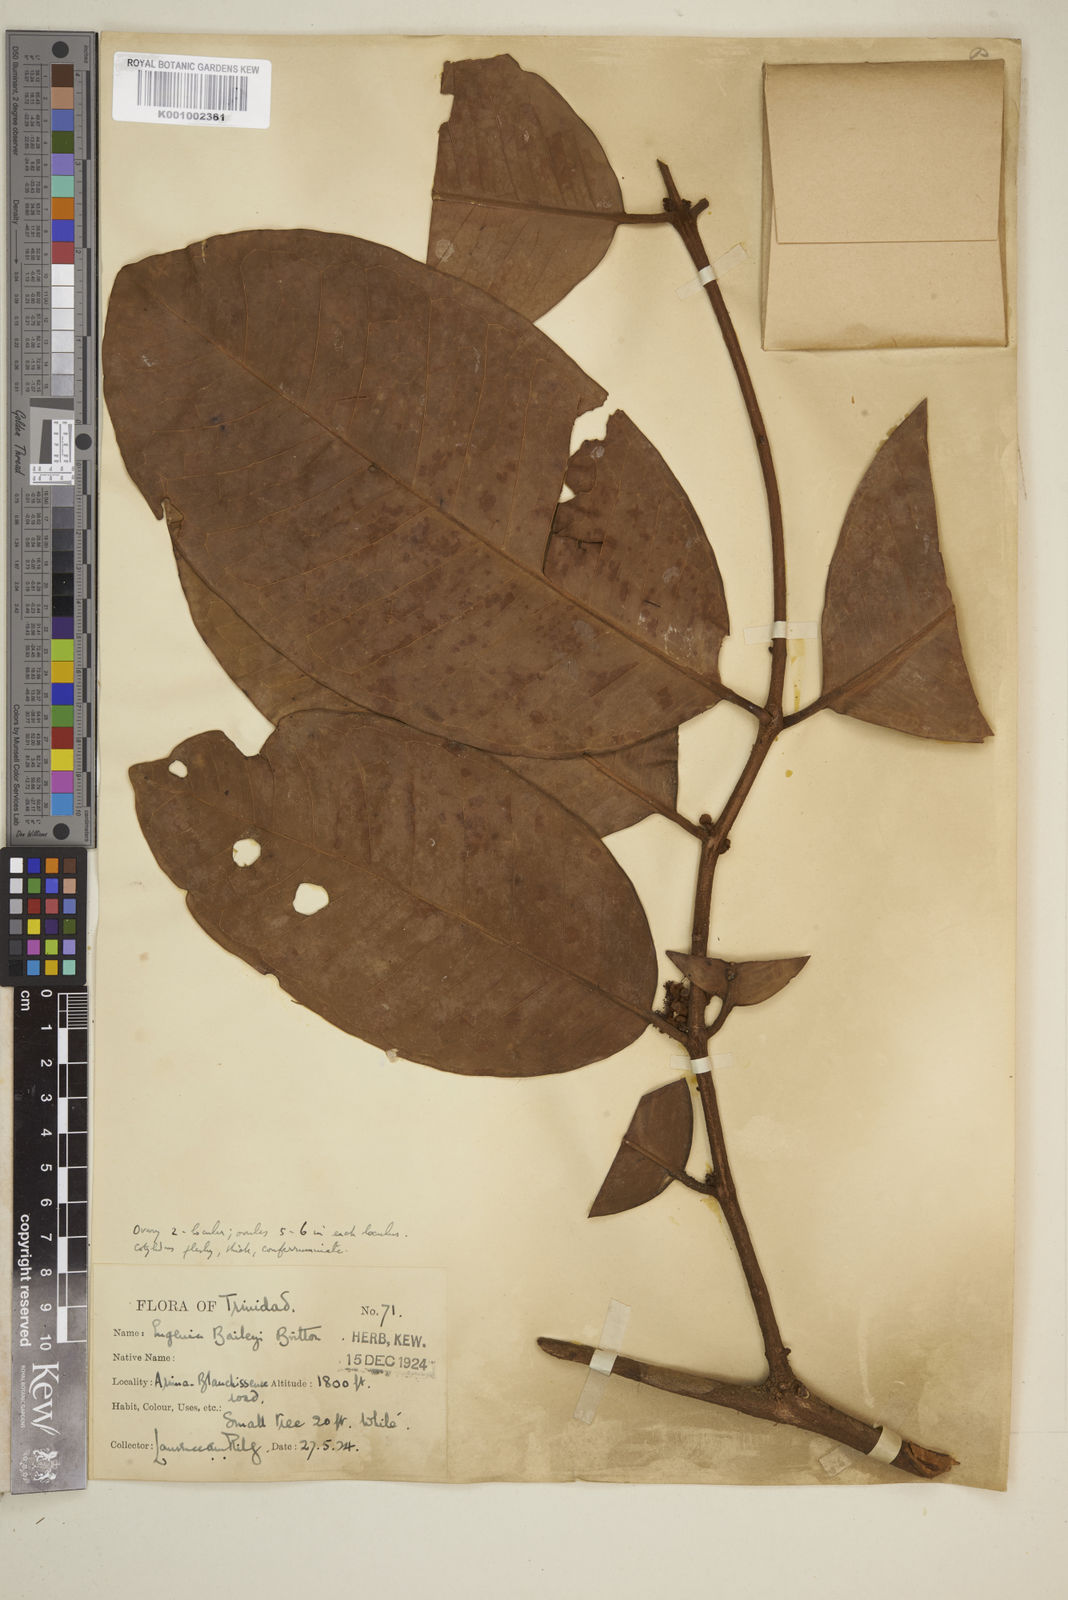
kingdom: Plantae
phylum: Tracheophyta
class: Magnoliopsida
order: Myrtales
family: Myrtaceae
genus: Eugenia
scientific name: Eugenia baileyi
